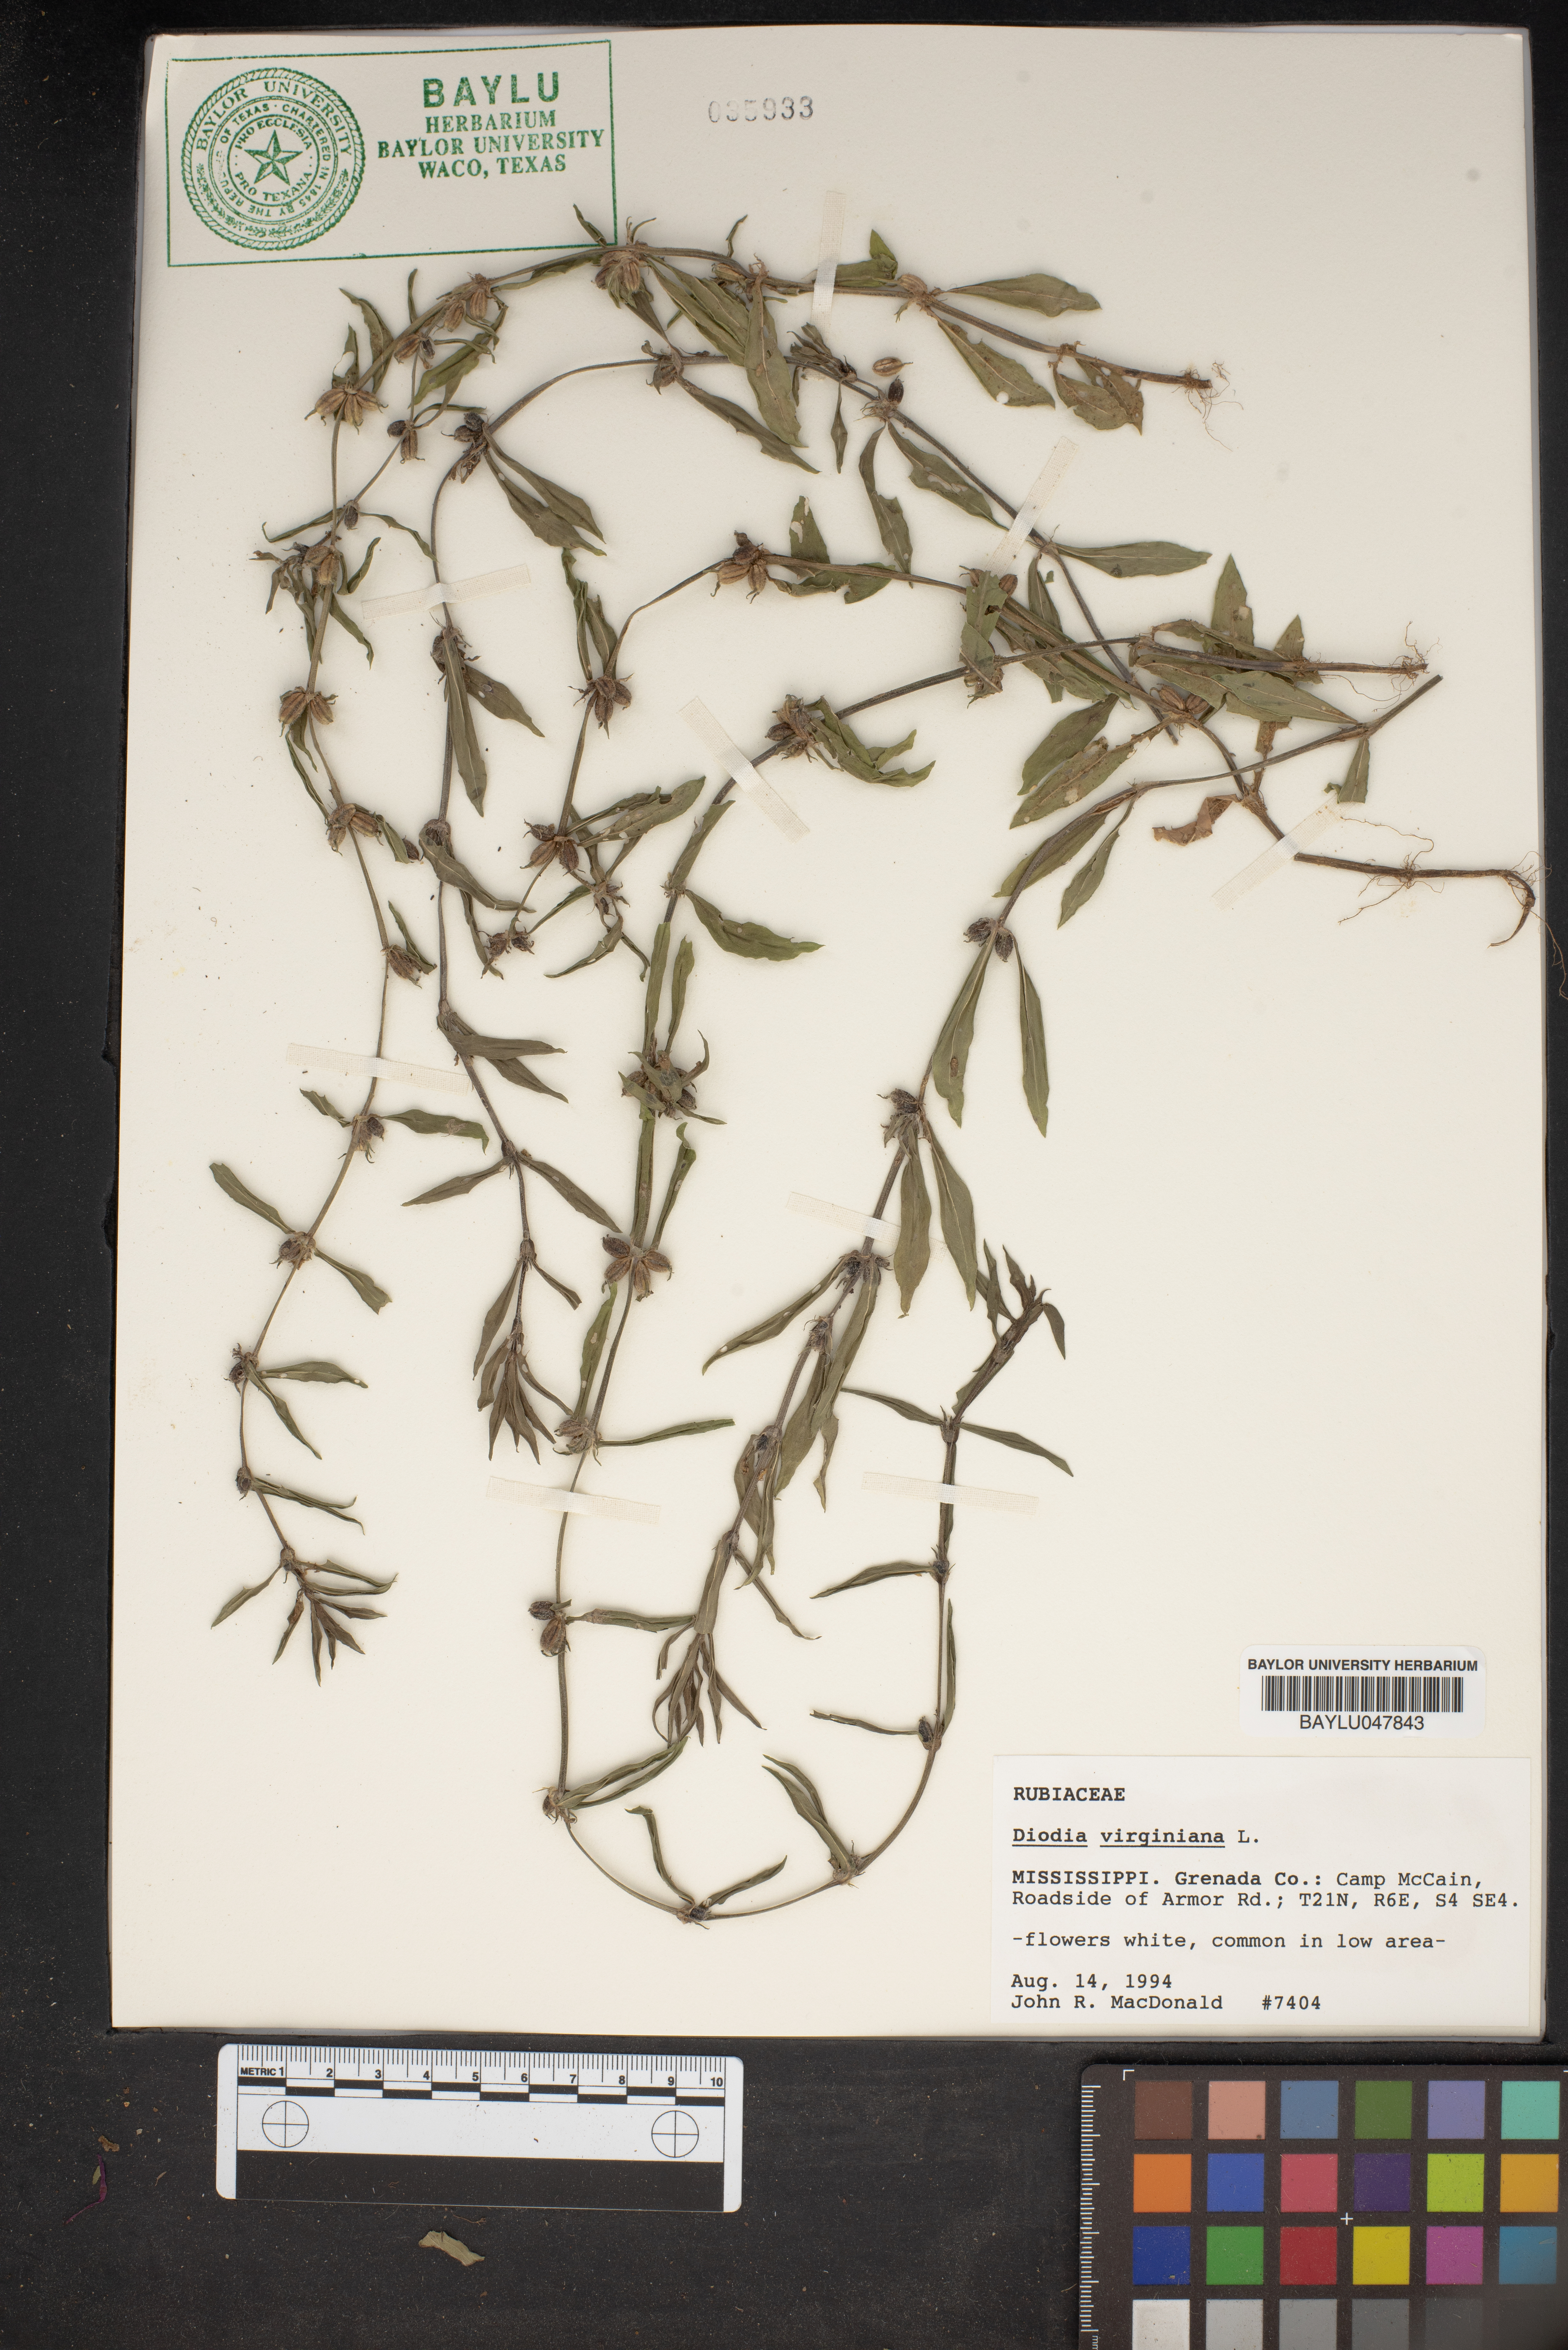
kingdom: Plantae
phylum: Tracheophyta
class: Magnoliopsida
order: Gentianales
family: Rubiaceae
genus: Diodia
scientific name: Diodia virginiana
